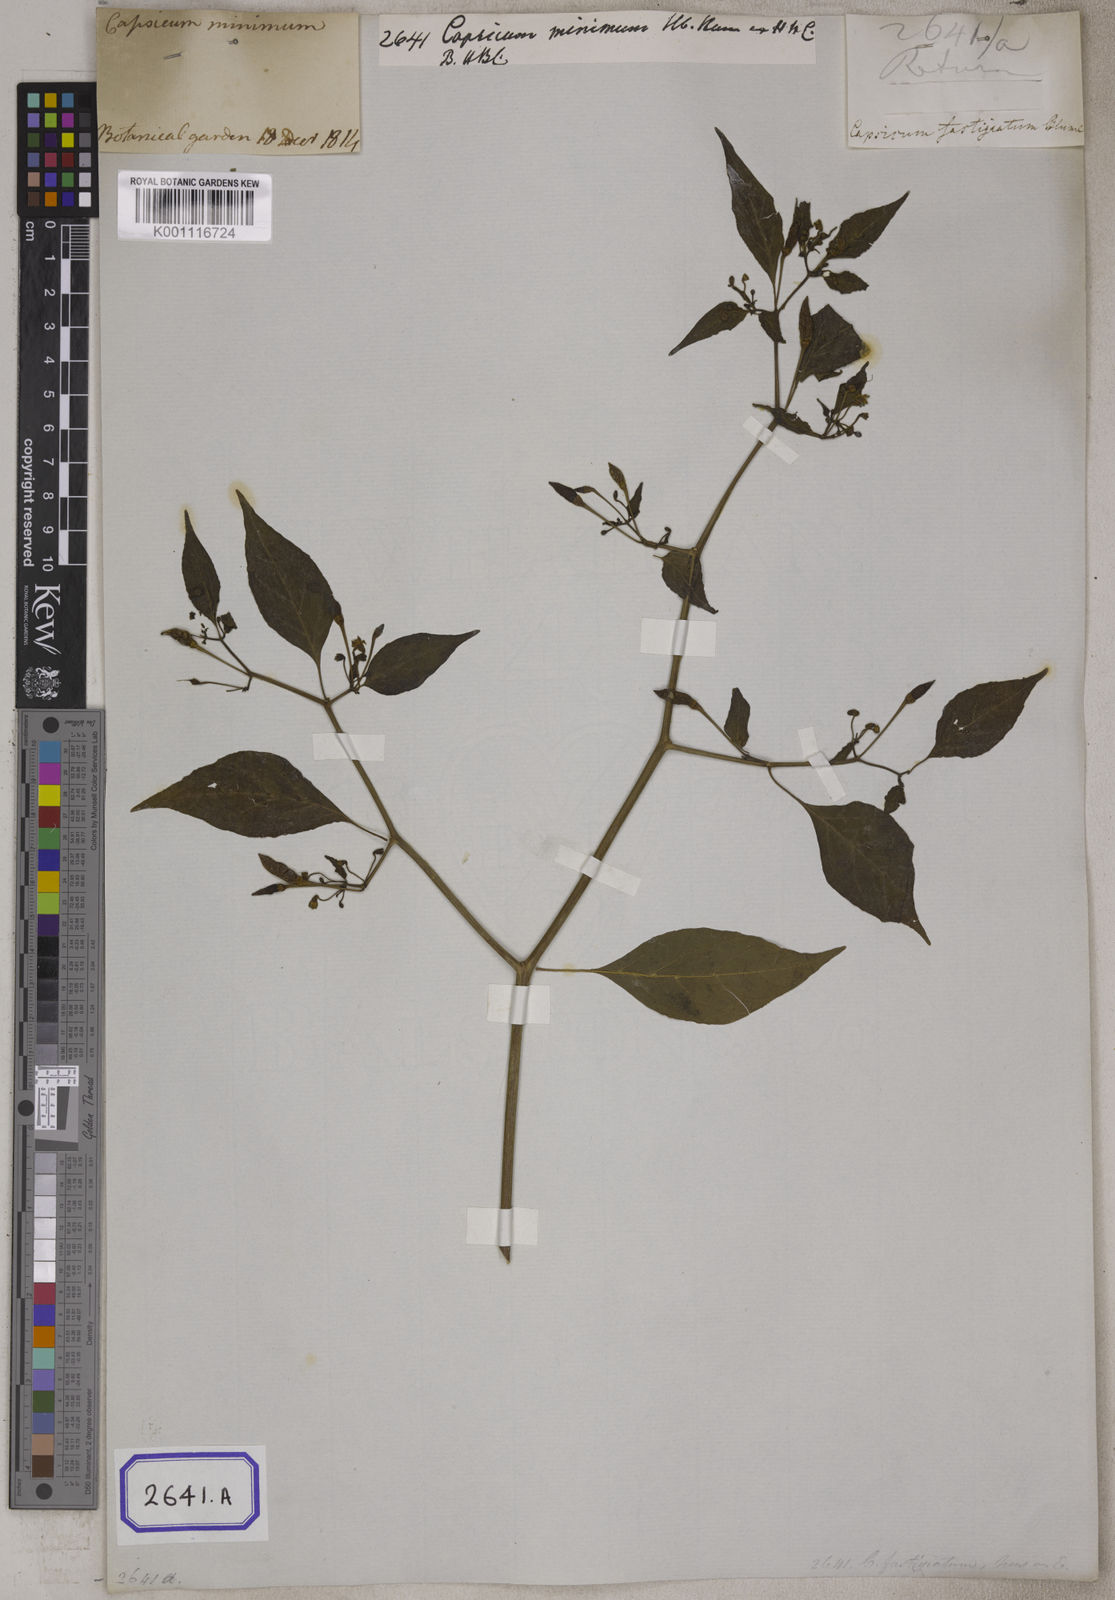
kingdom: Plantae
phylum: Tracheophyta
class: Magnoliopsida
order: Solanales
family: Solanaceae
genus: Capsicum
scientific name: Capsicum frutescens
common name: Bird pepper
